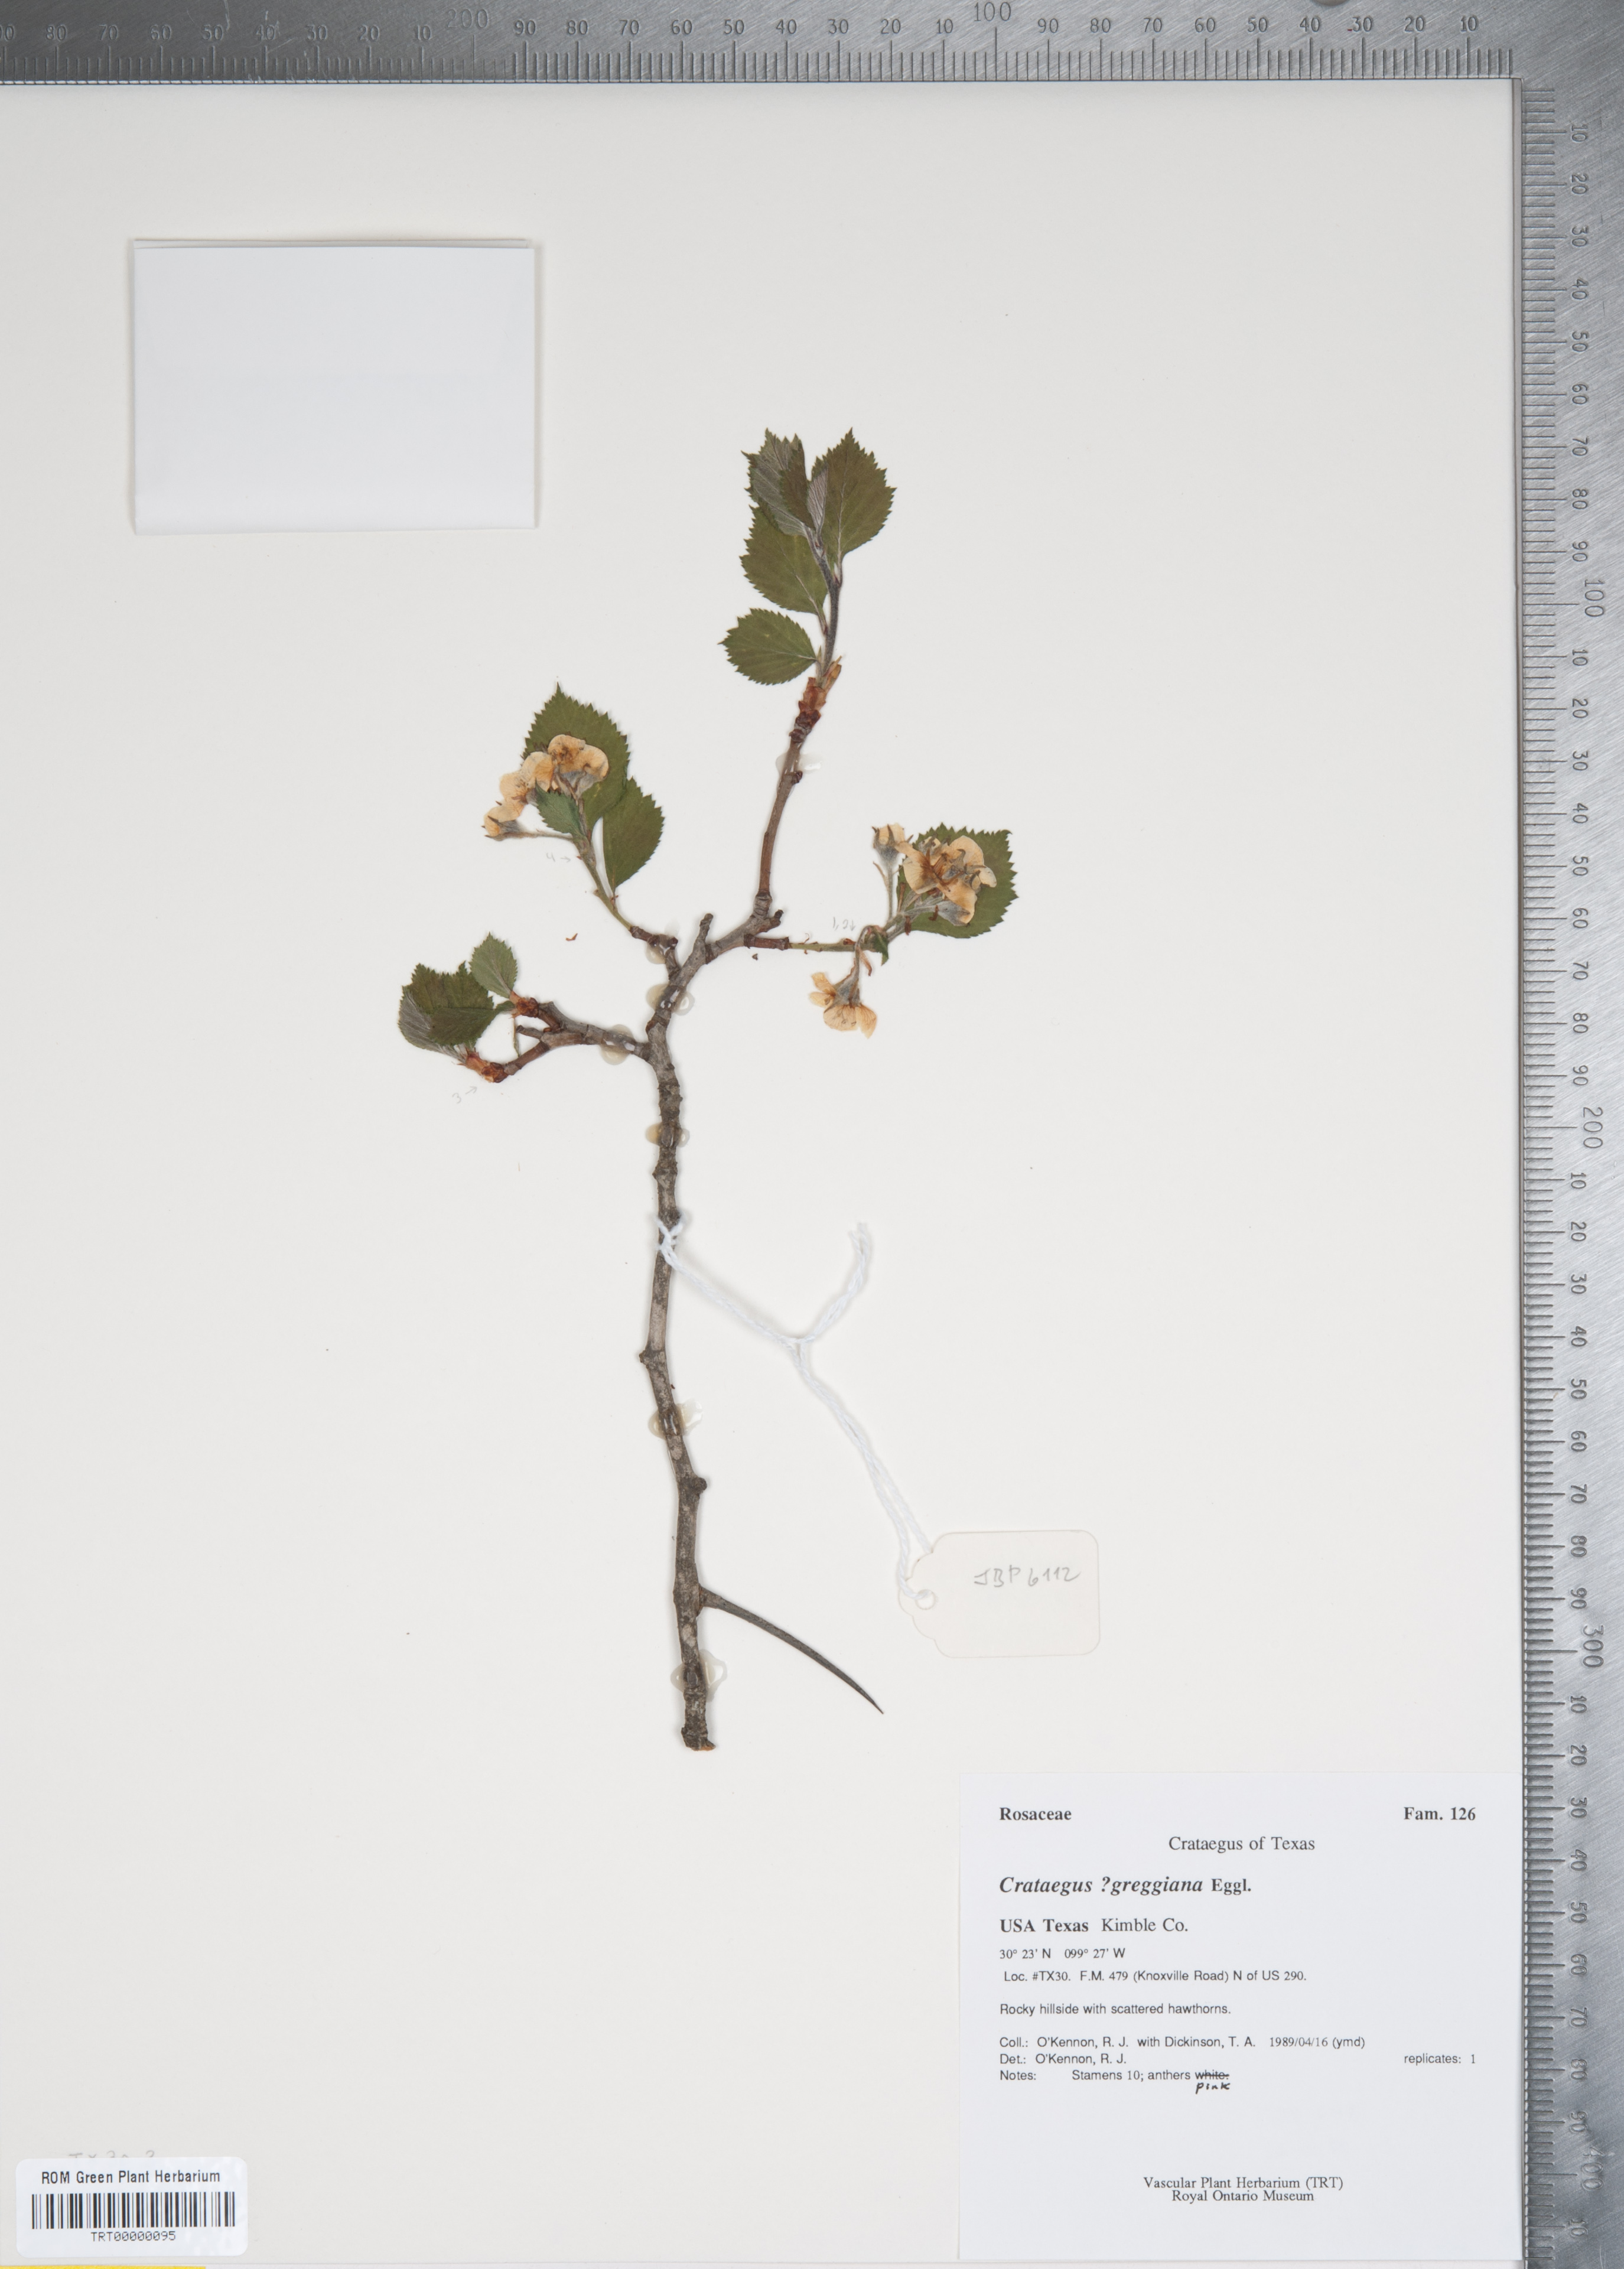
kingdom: Plantae
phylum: Tracheophyta
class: Magnoliopsida
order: Rosales
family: Rosaceae
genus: Crataegus
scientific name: Crataegus greggiana
